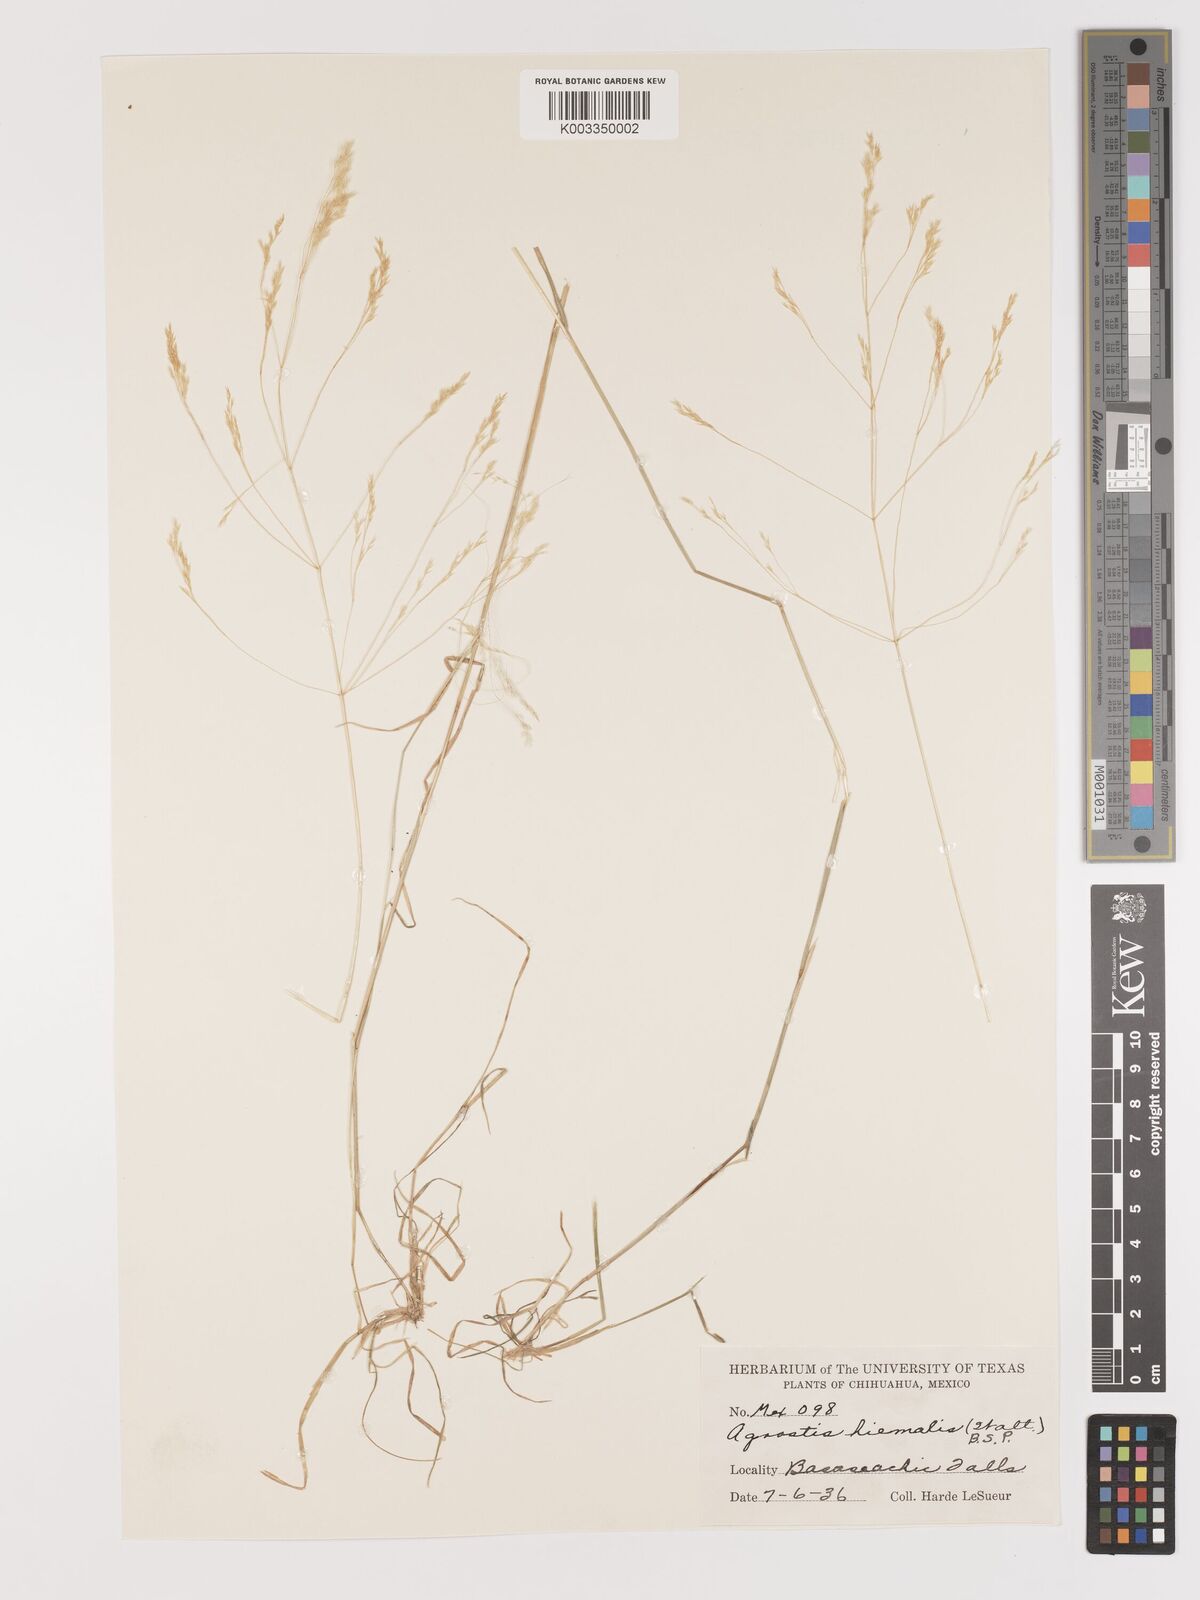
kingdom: Plantae
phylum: Tracheophyta
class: Liliopsida
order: Poales
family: Poaceae
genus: Agrostis
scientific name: Agrostis hyemalis
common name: Small bent
